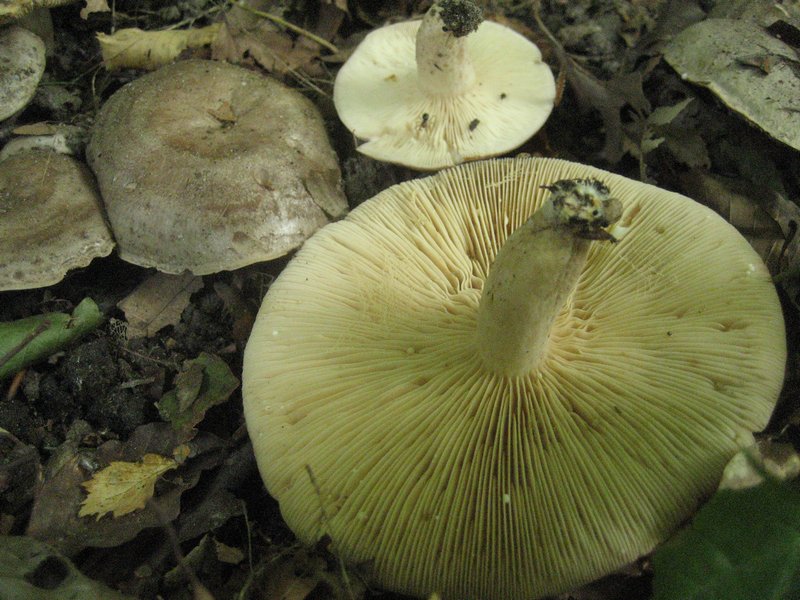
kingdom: Fungi
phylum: Basidiomycota
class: Agaricomycetes
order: Russulales
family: Russulaceae
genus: Lactarius
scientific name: Lactarius circellatus
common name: avnbøg-mælkehat
